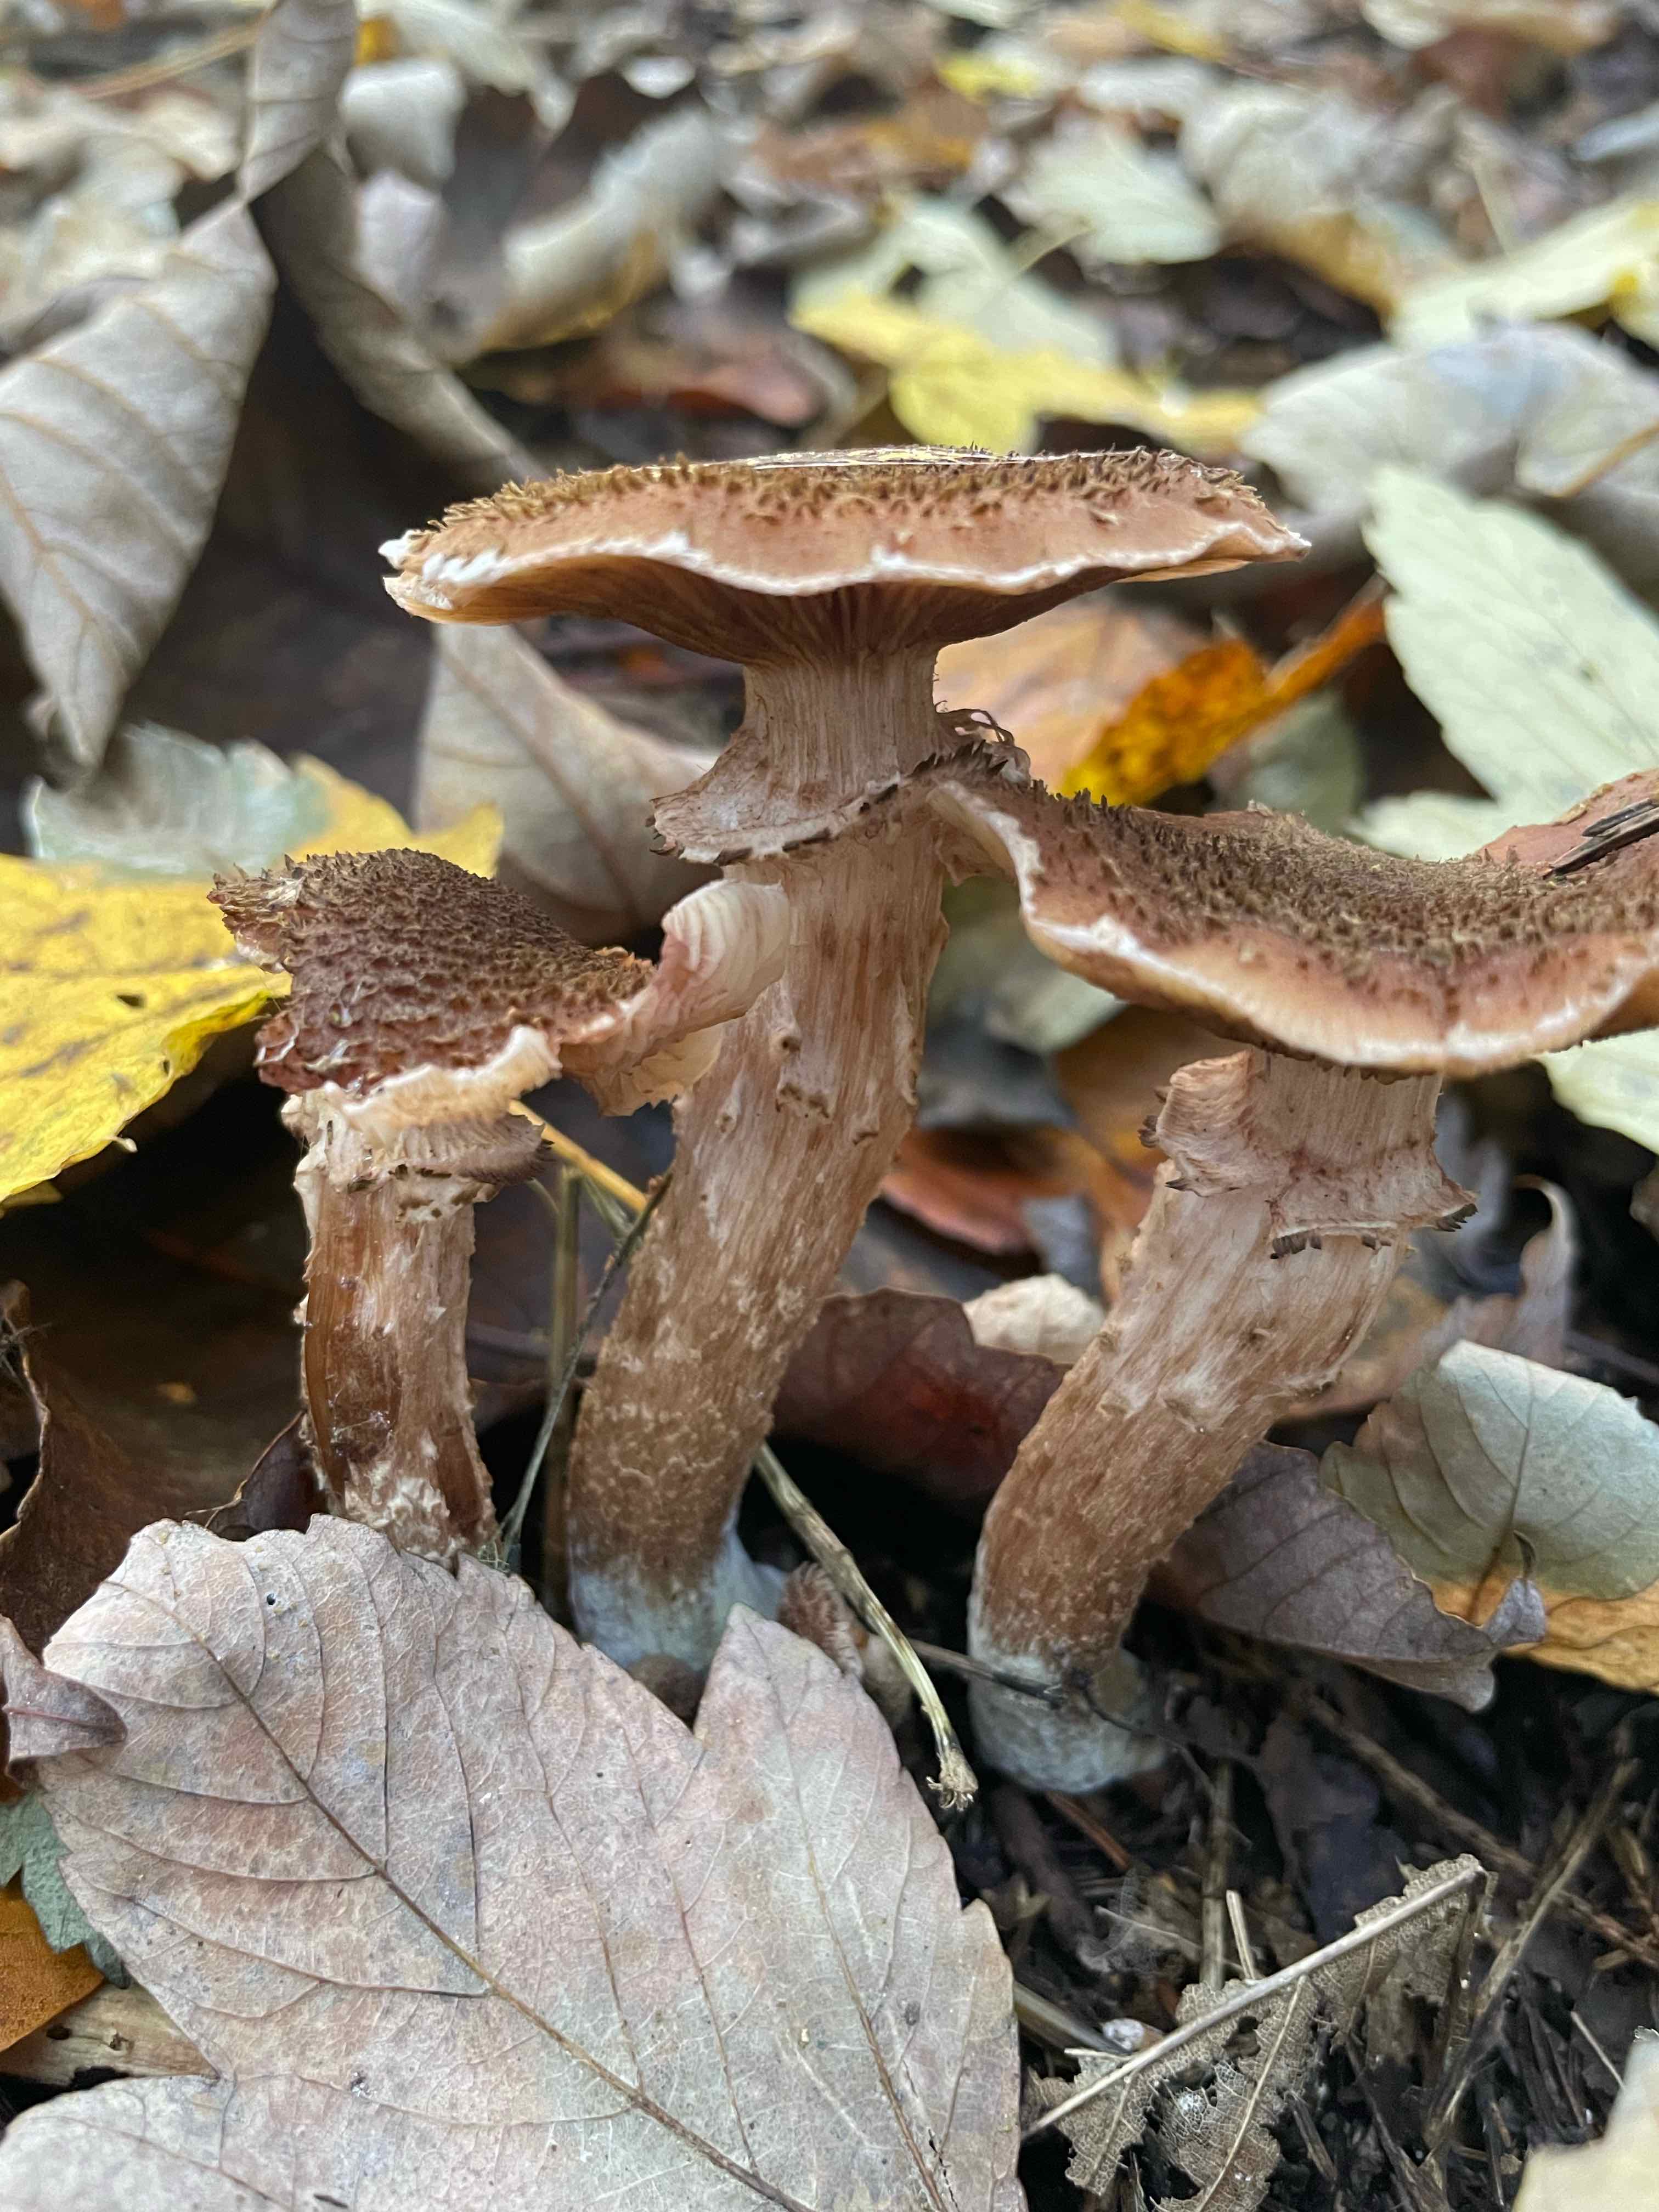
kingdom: Fungi
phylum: Basidiomycota
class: Agaricomycetes
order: Agaricales
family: Physalacriaceae
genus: Armillaria
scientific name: Armillaria ostoyae
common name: mørk honningsvamp
